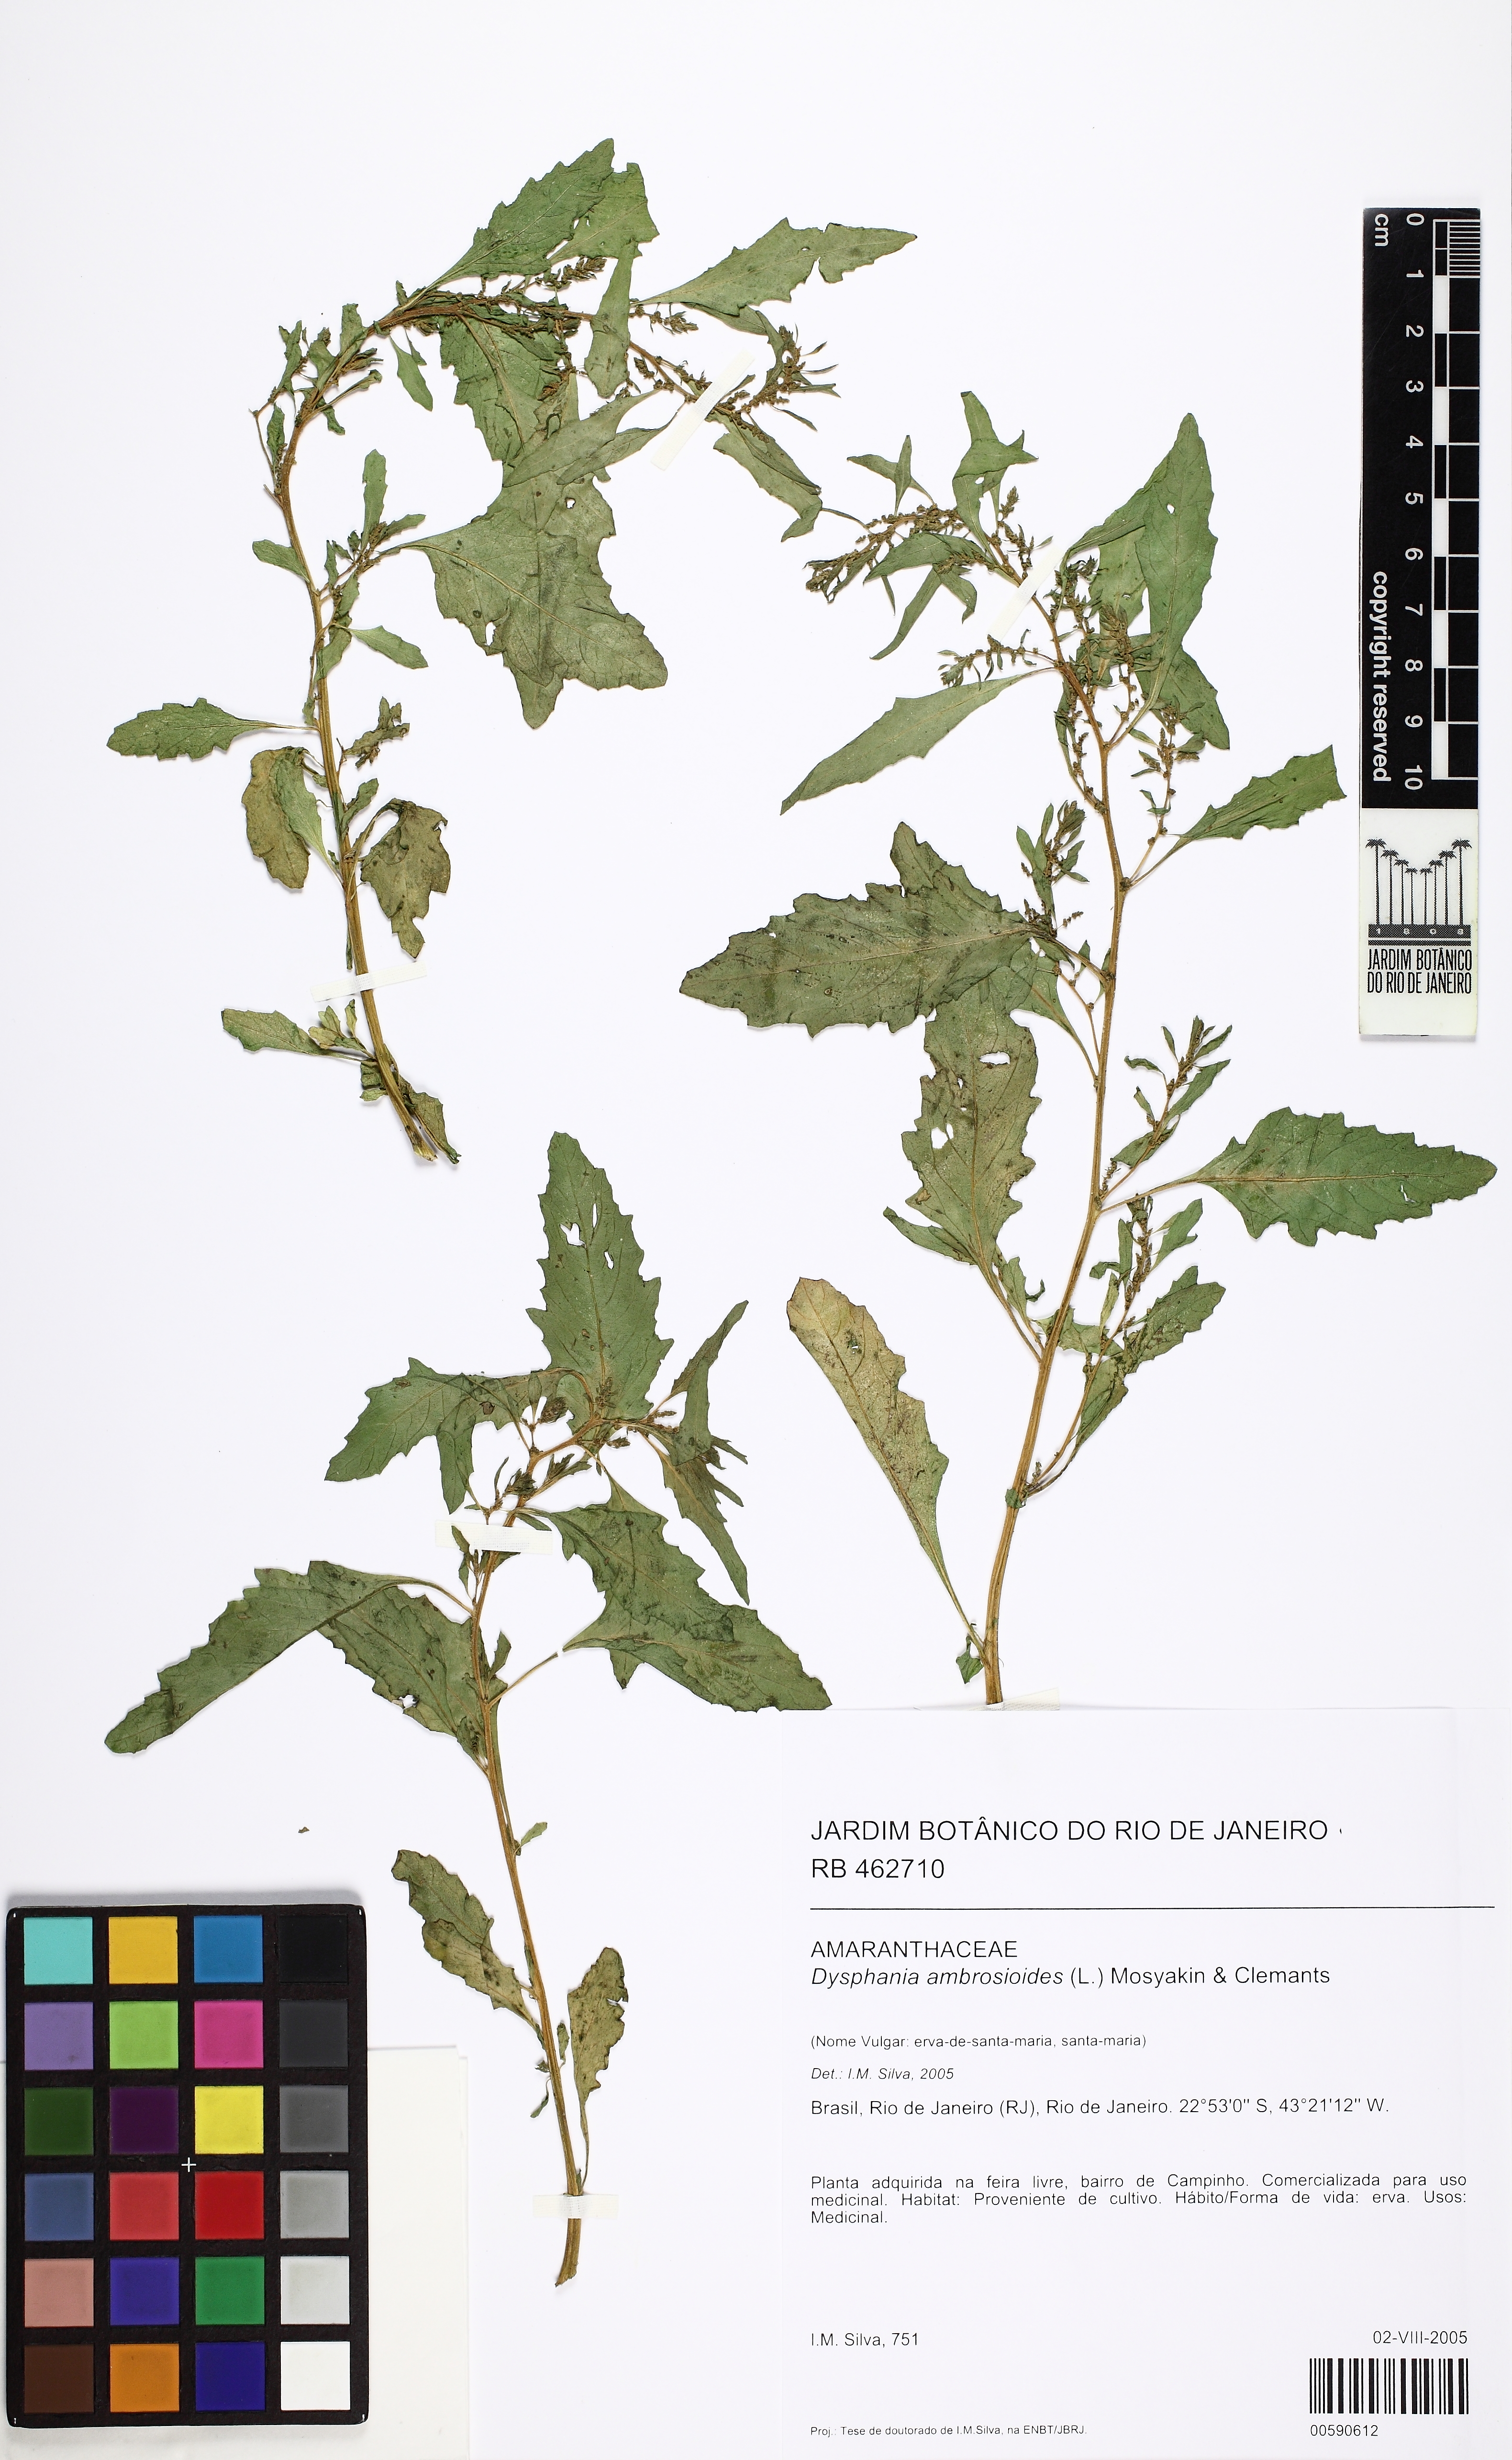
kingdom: Plantae
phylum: Tracheophyta
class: Magnoliopsida
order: Caryophyllales
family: Amaranthaceae
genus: Dysphania
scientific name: Dysphania ambrosioides
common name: Wormseed
